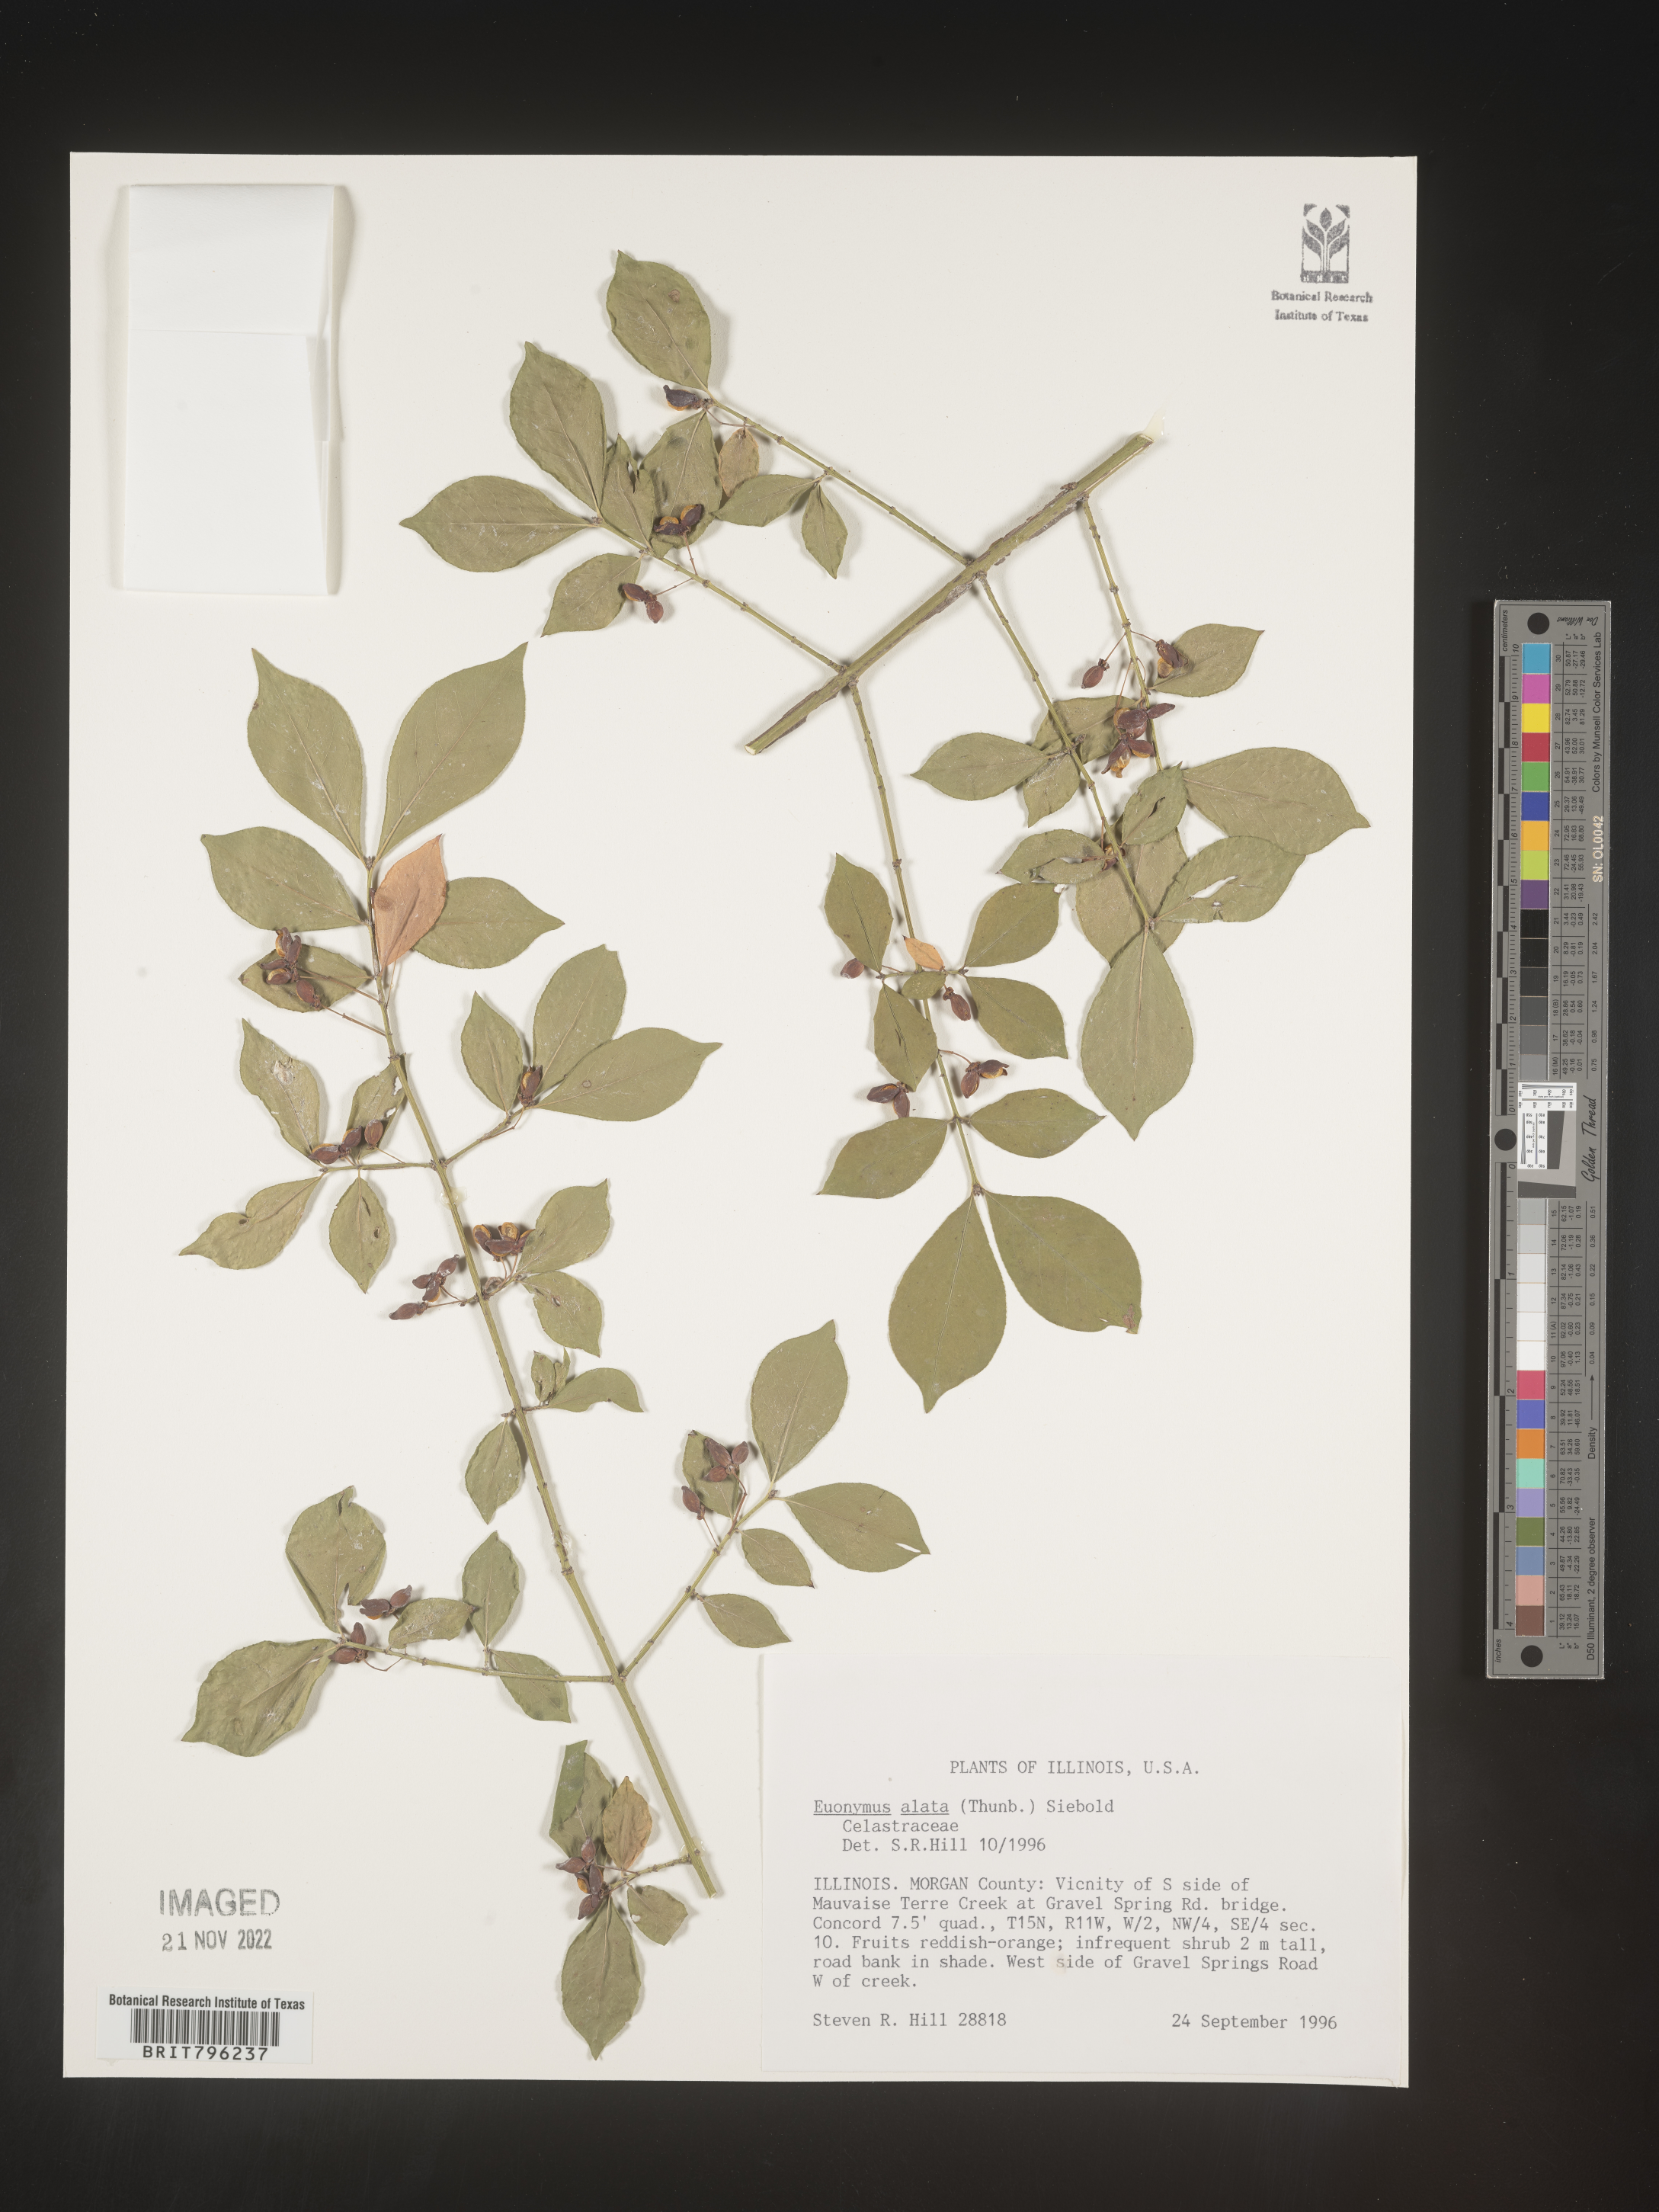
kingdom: Plantae
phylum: Tracheophyta
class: Magnoliopsida
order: Celastrales
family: Celastraceae
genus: Euonymus
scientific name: Euonymus alatus
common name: Winged euonymus
